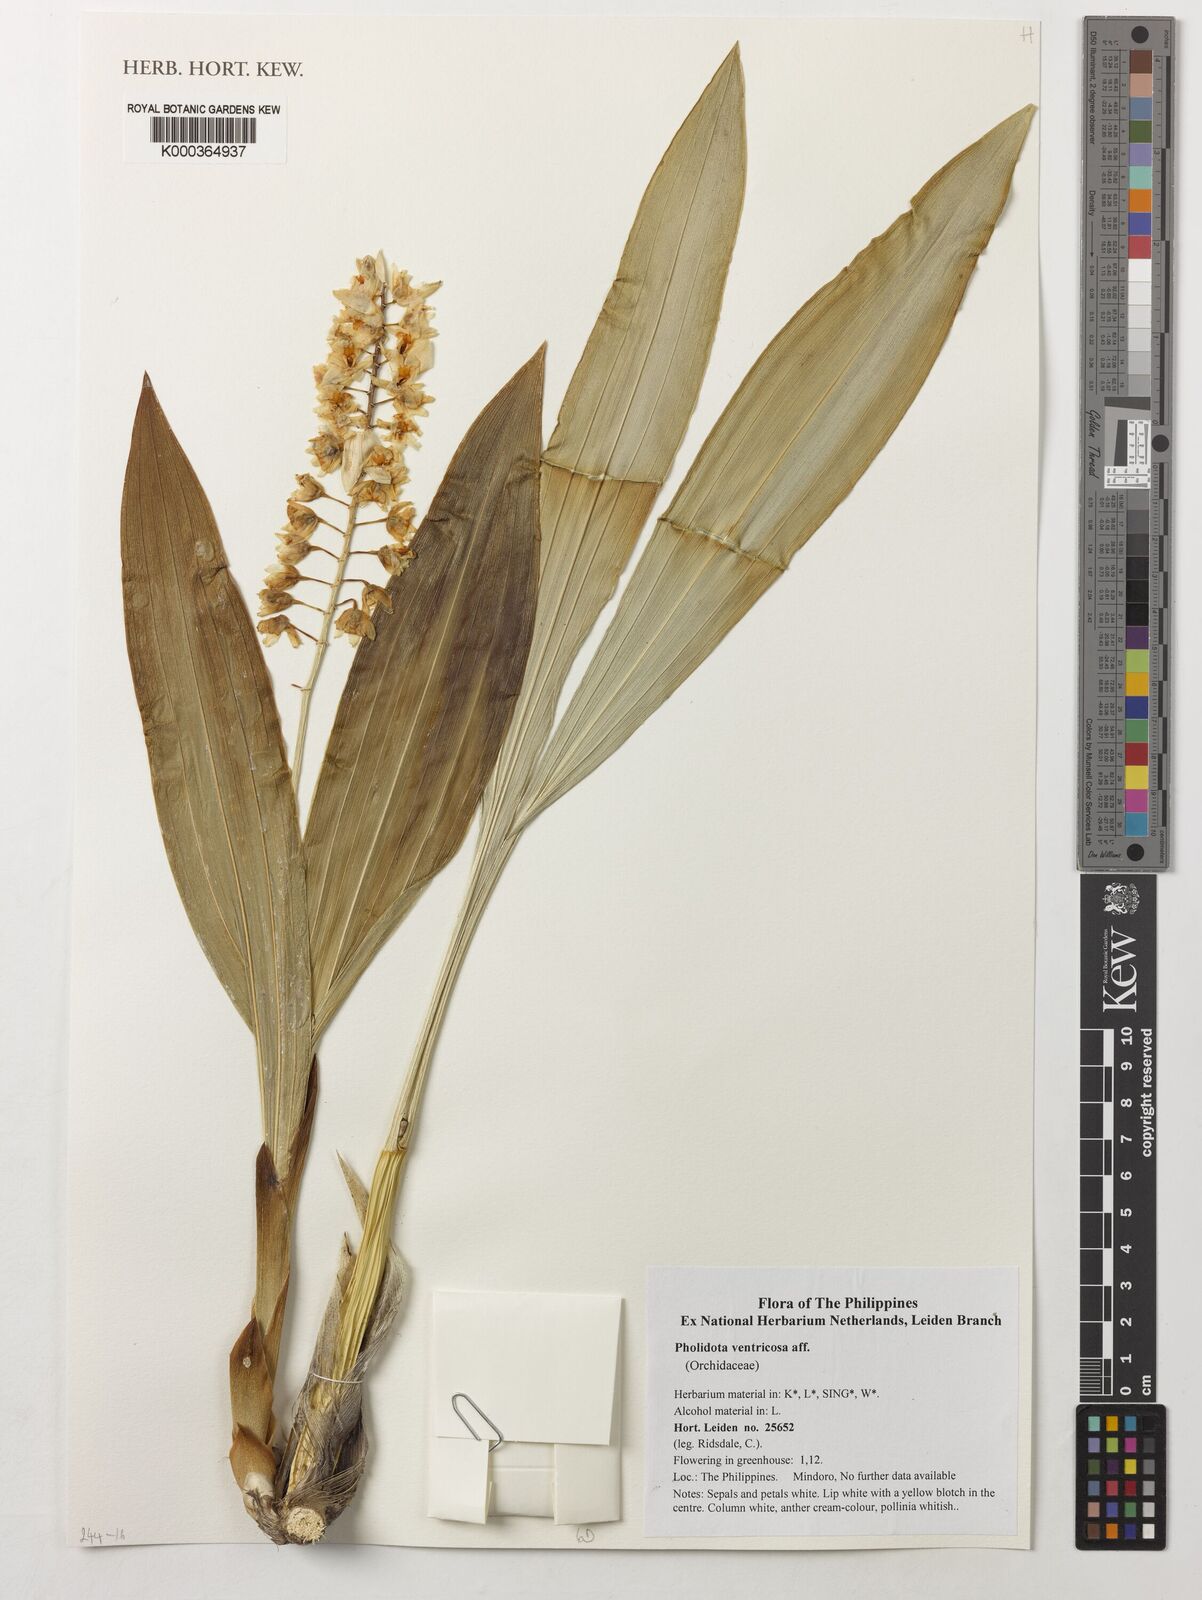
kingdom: Plantae
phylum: Tracheophyta
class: Liliopsida
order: Asparagales
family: Orchidaceae
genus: Coelogyne
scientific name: Coelogyne ventricosa
